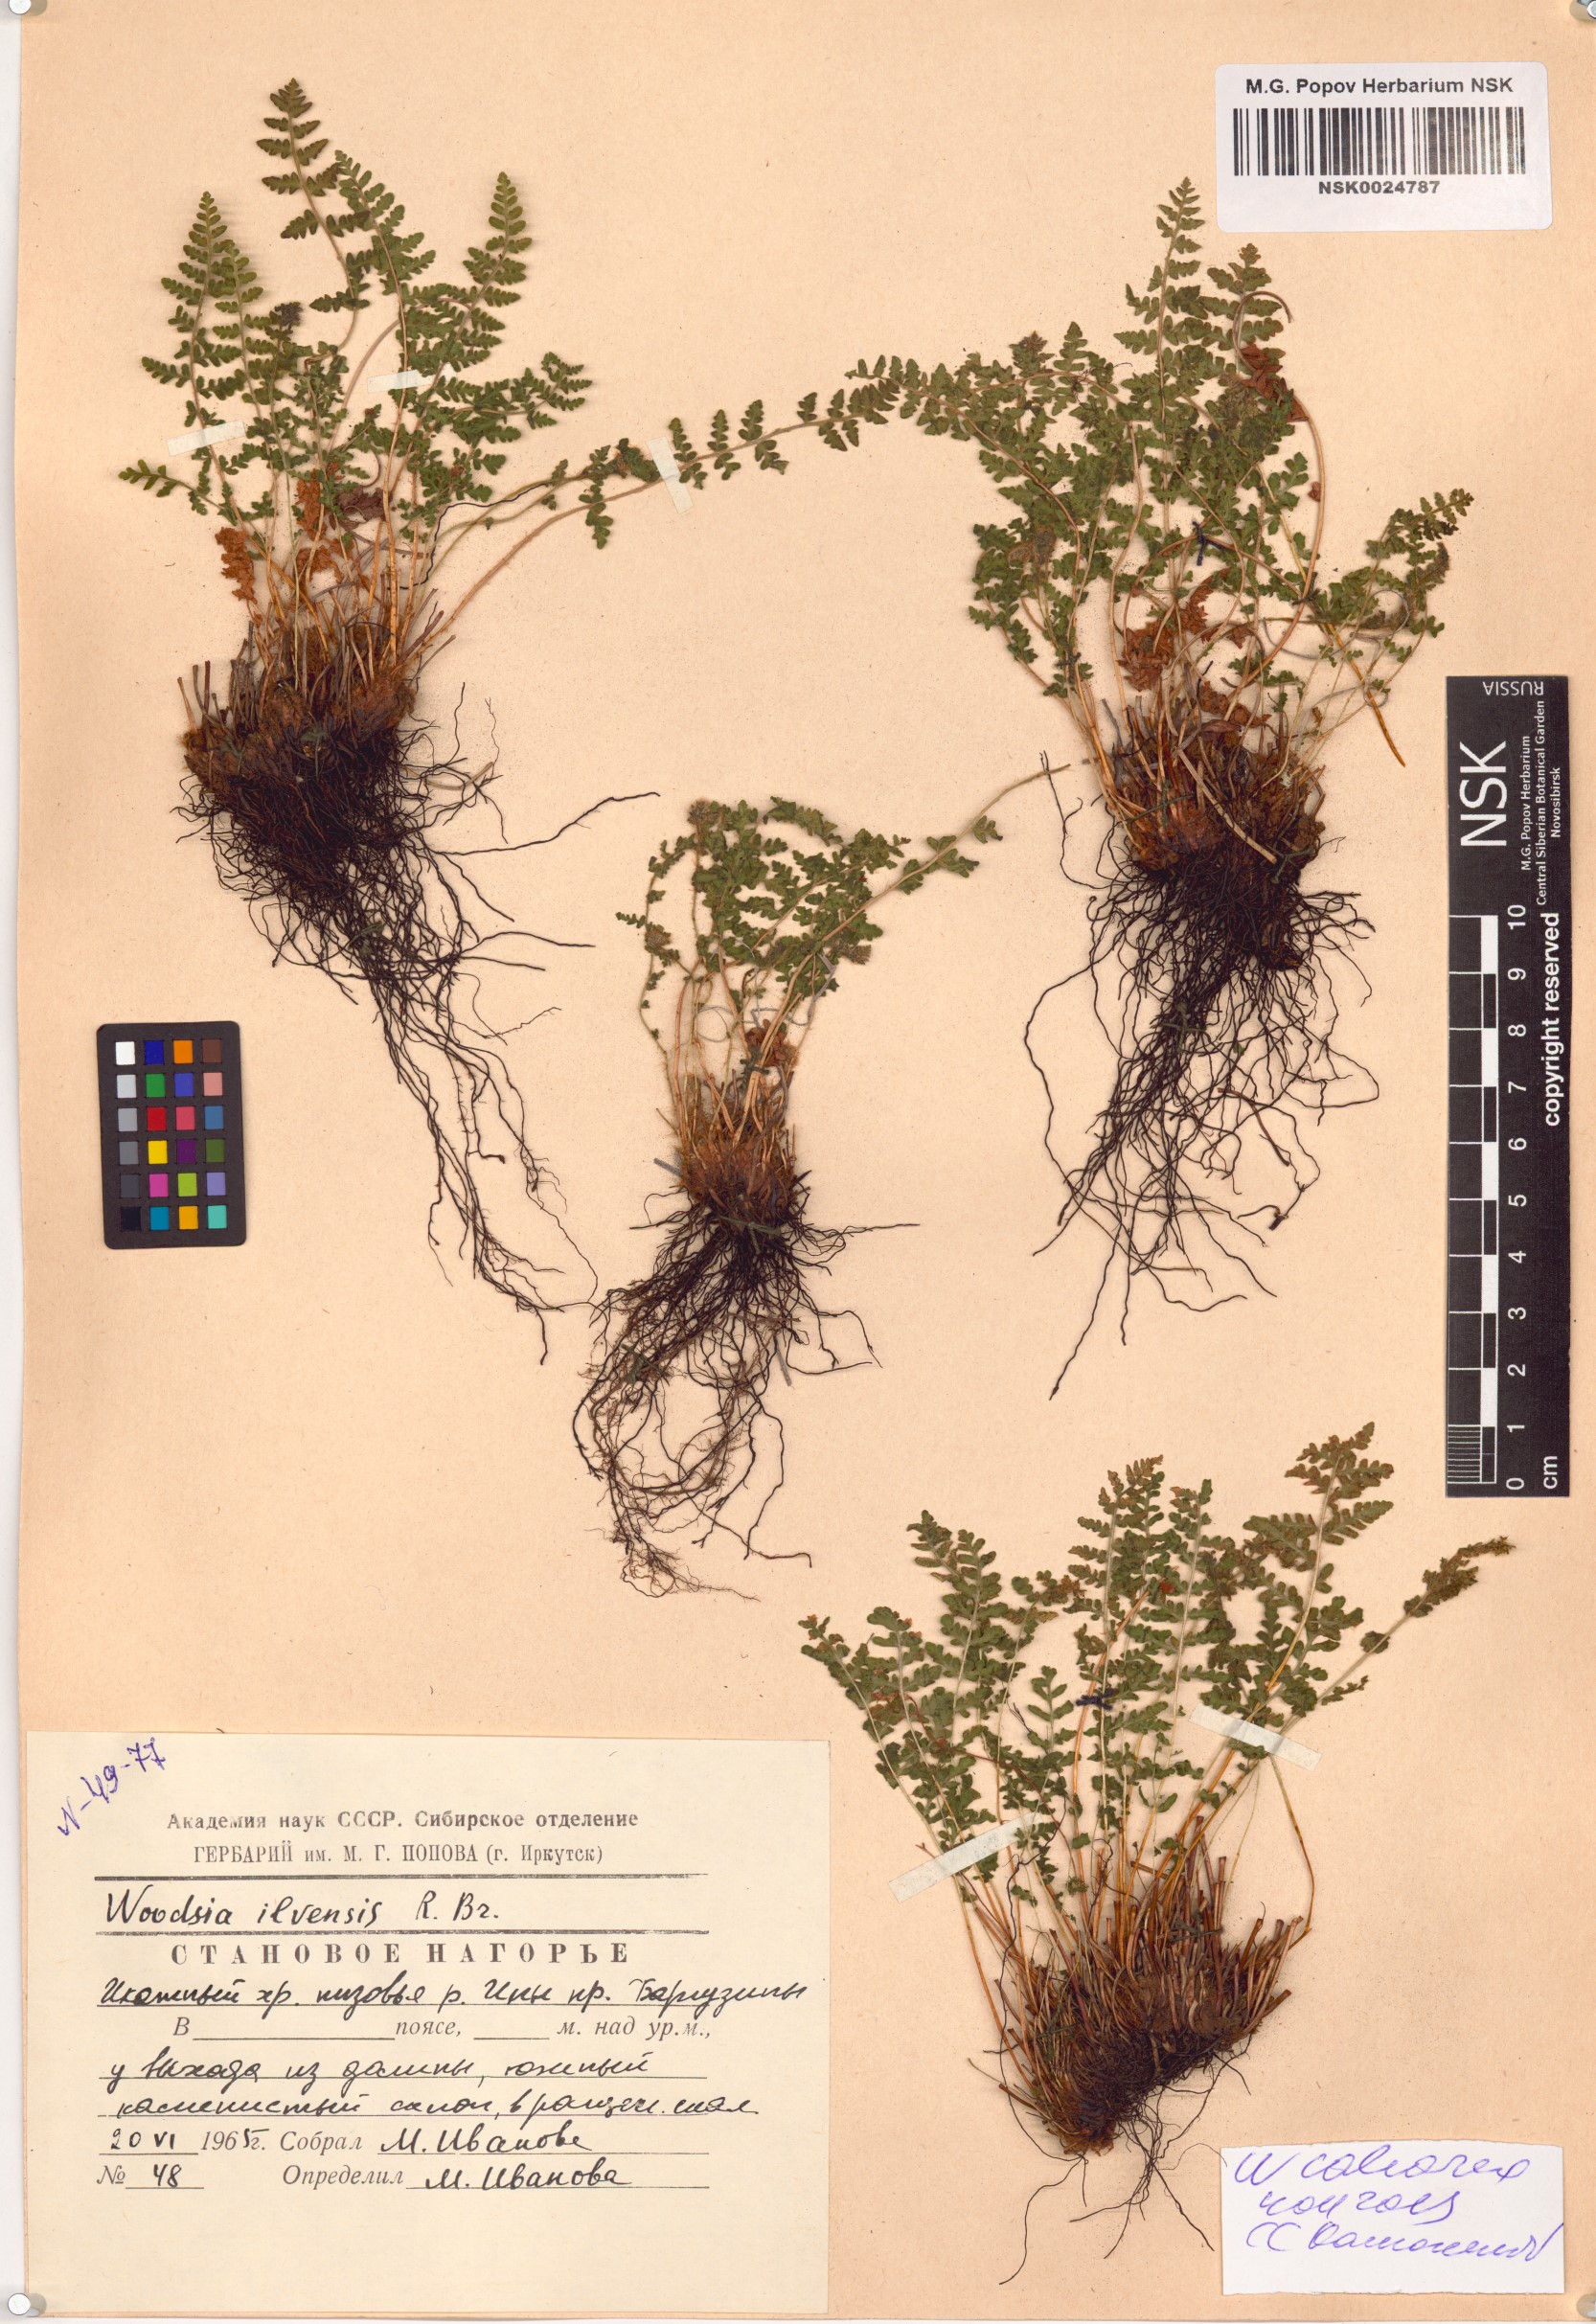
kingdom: Plantae
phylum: Tracheophyta
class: Polypodiopsida
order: Polypodiales
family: Woodsiaceae
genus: Woodsia
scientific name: Woodsia calcarea
